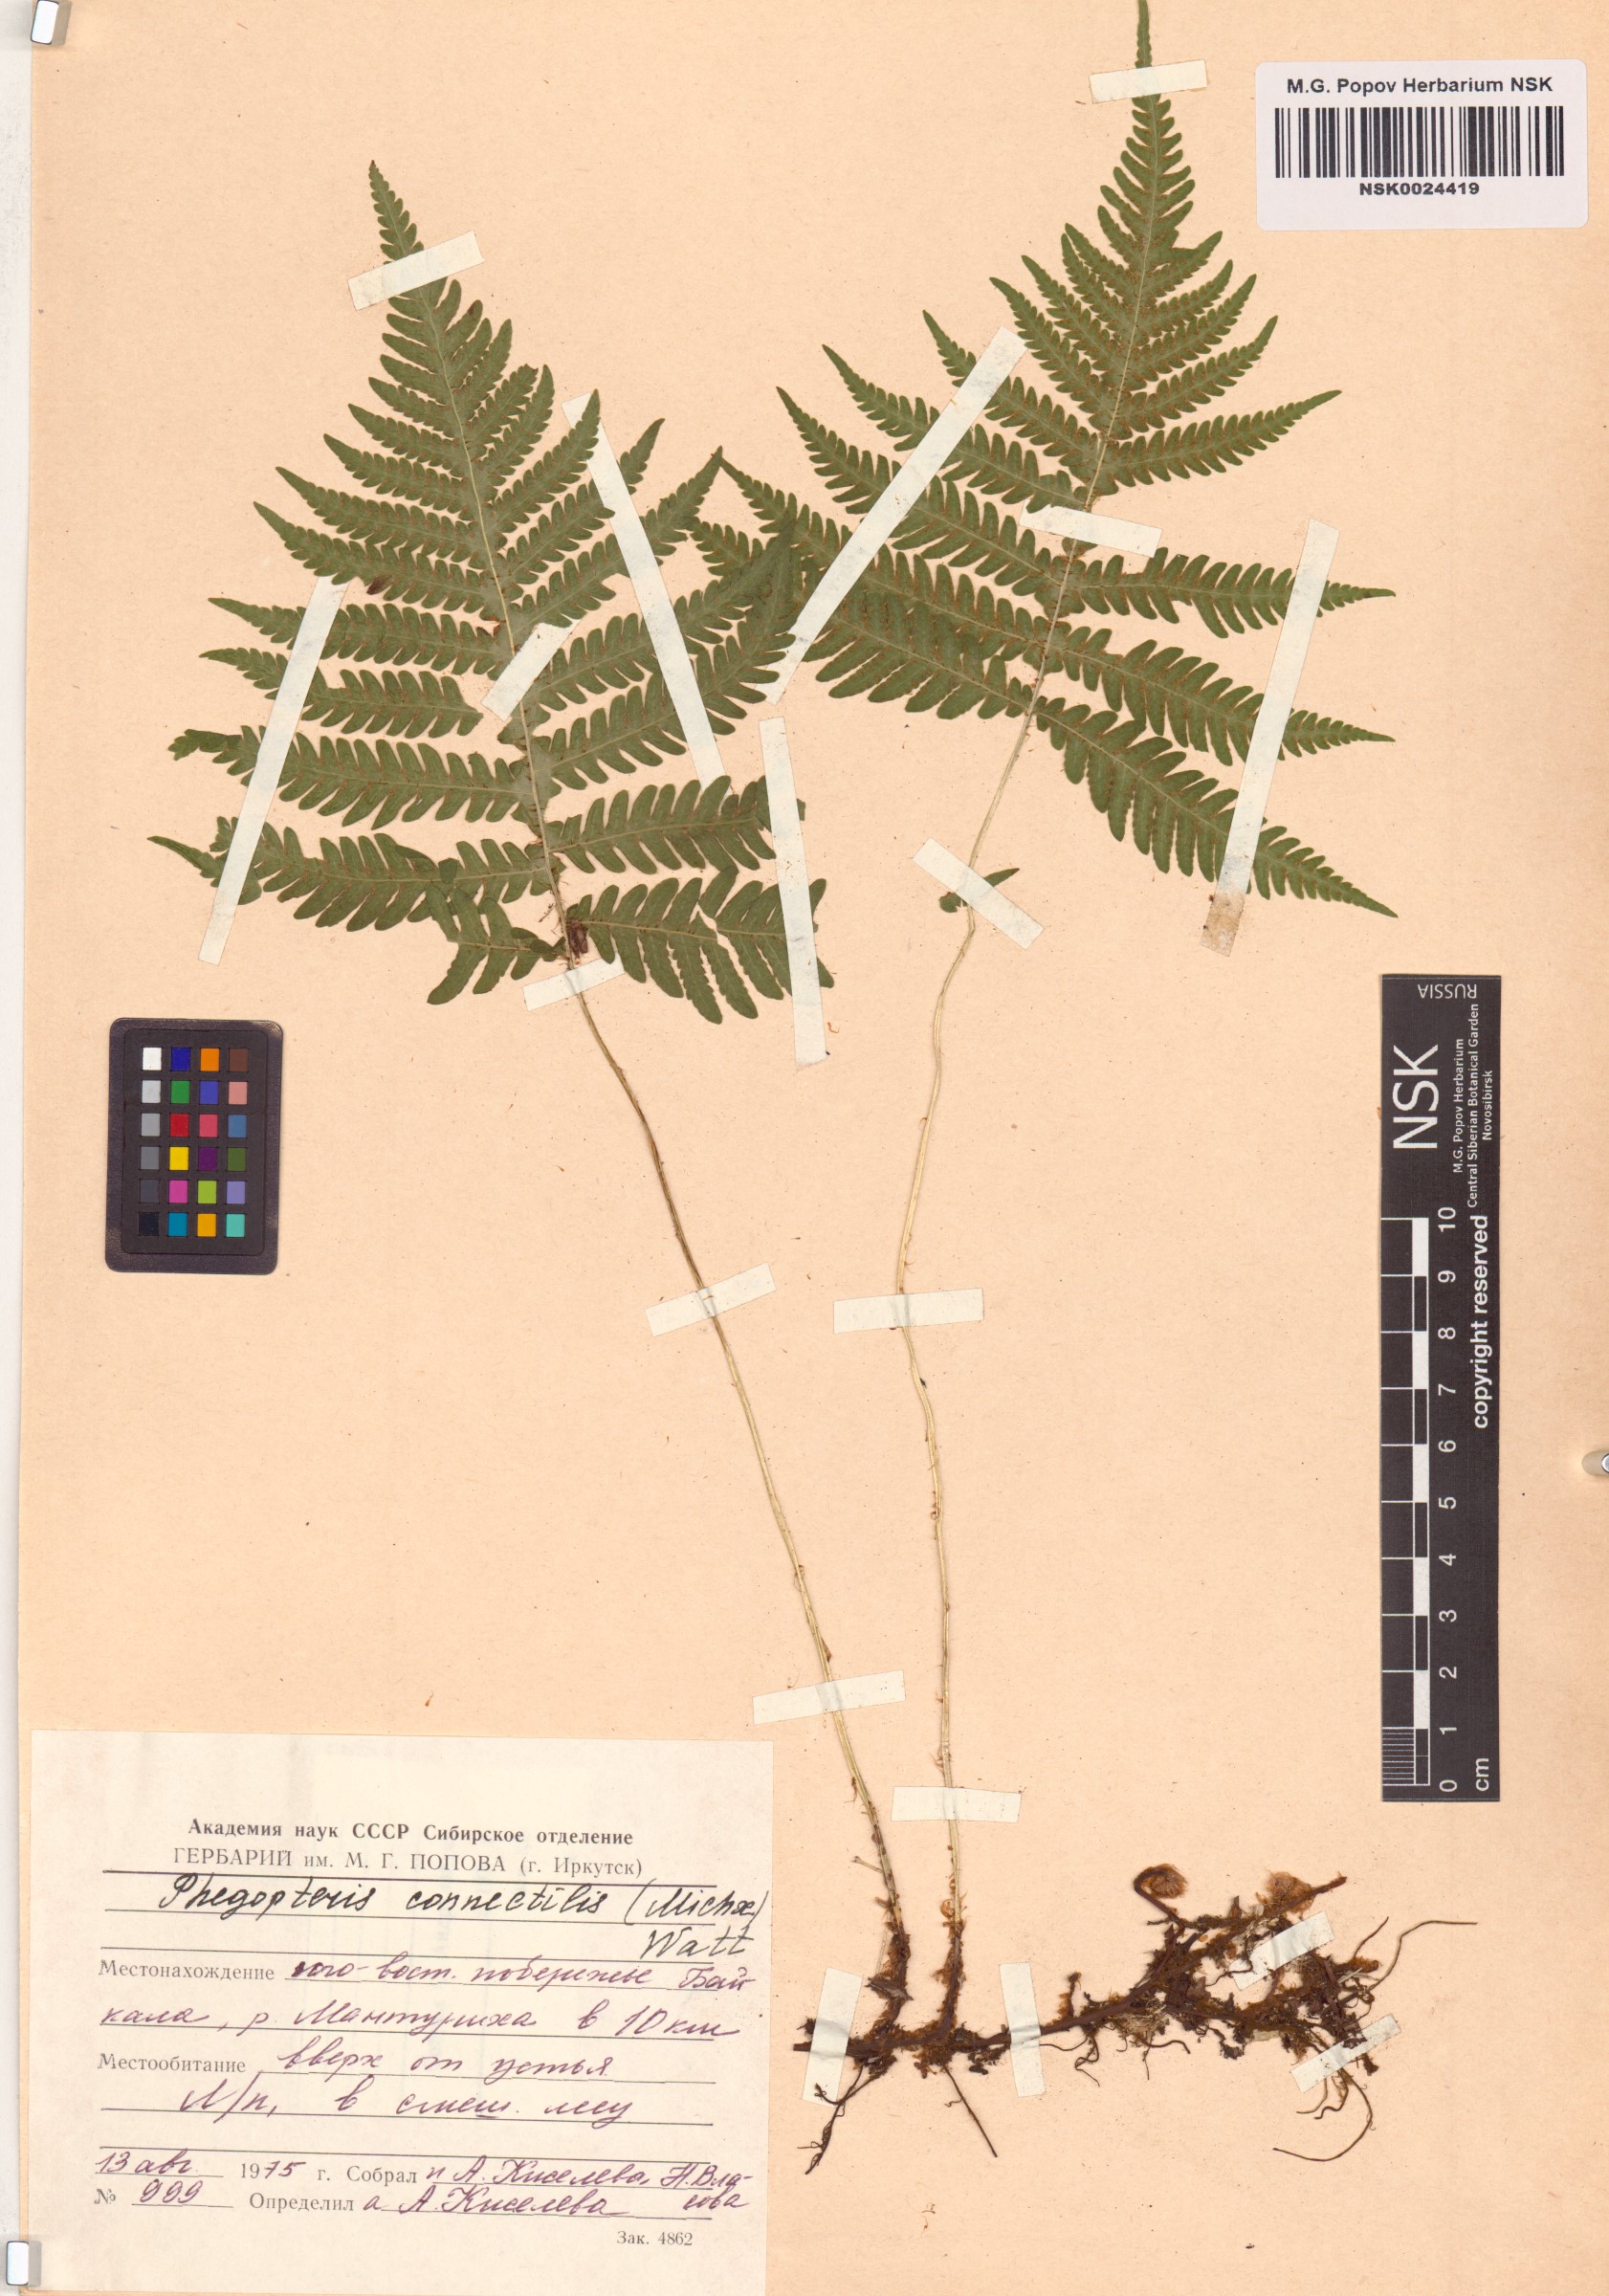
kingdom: Plantae
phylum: Tracheophyta
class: Polypodiopsida
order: Polypodiales
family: Thelypteridaceae
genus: Phegopteris
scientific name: Phegopteris connectilis
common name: Beech fern
